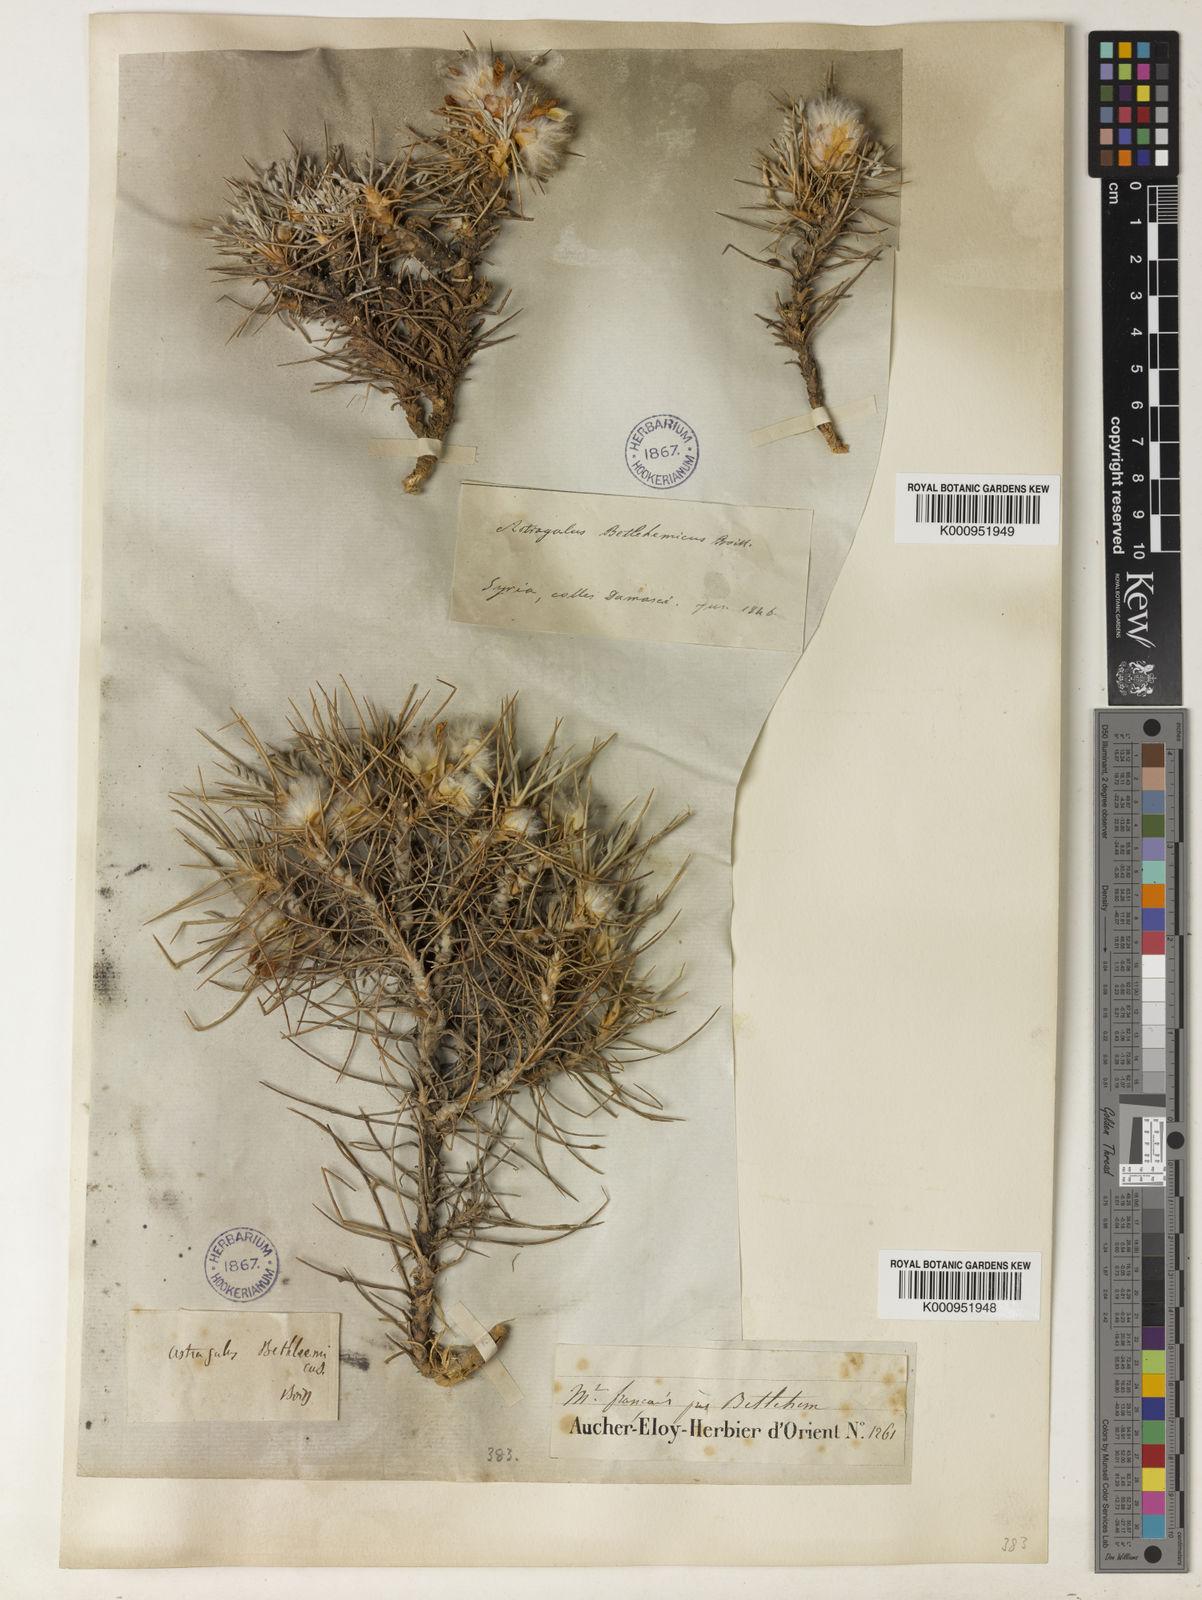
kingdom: Plantae
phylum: Tracheophyta
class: Magnoliopsida
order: Fabales
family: Fabaceae
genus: Astragalus
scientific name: Astragalus bethlehemiticus
